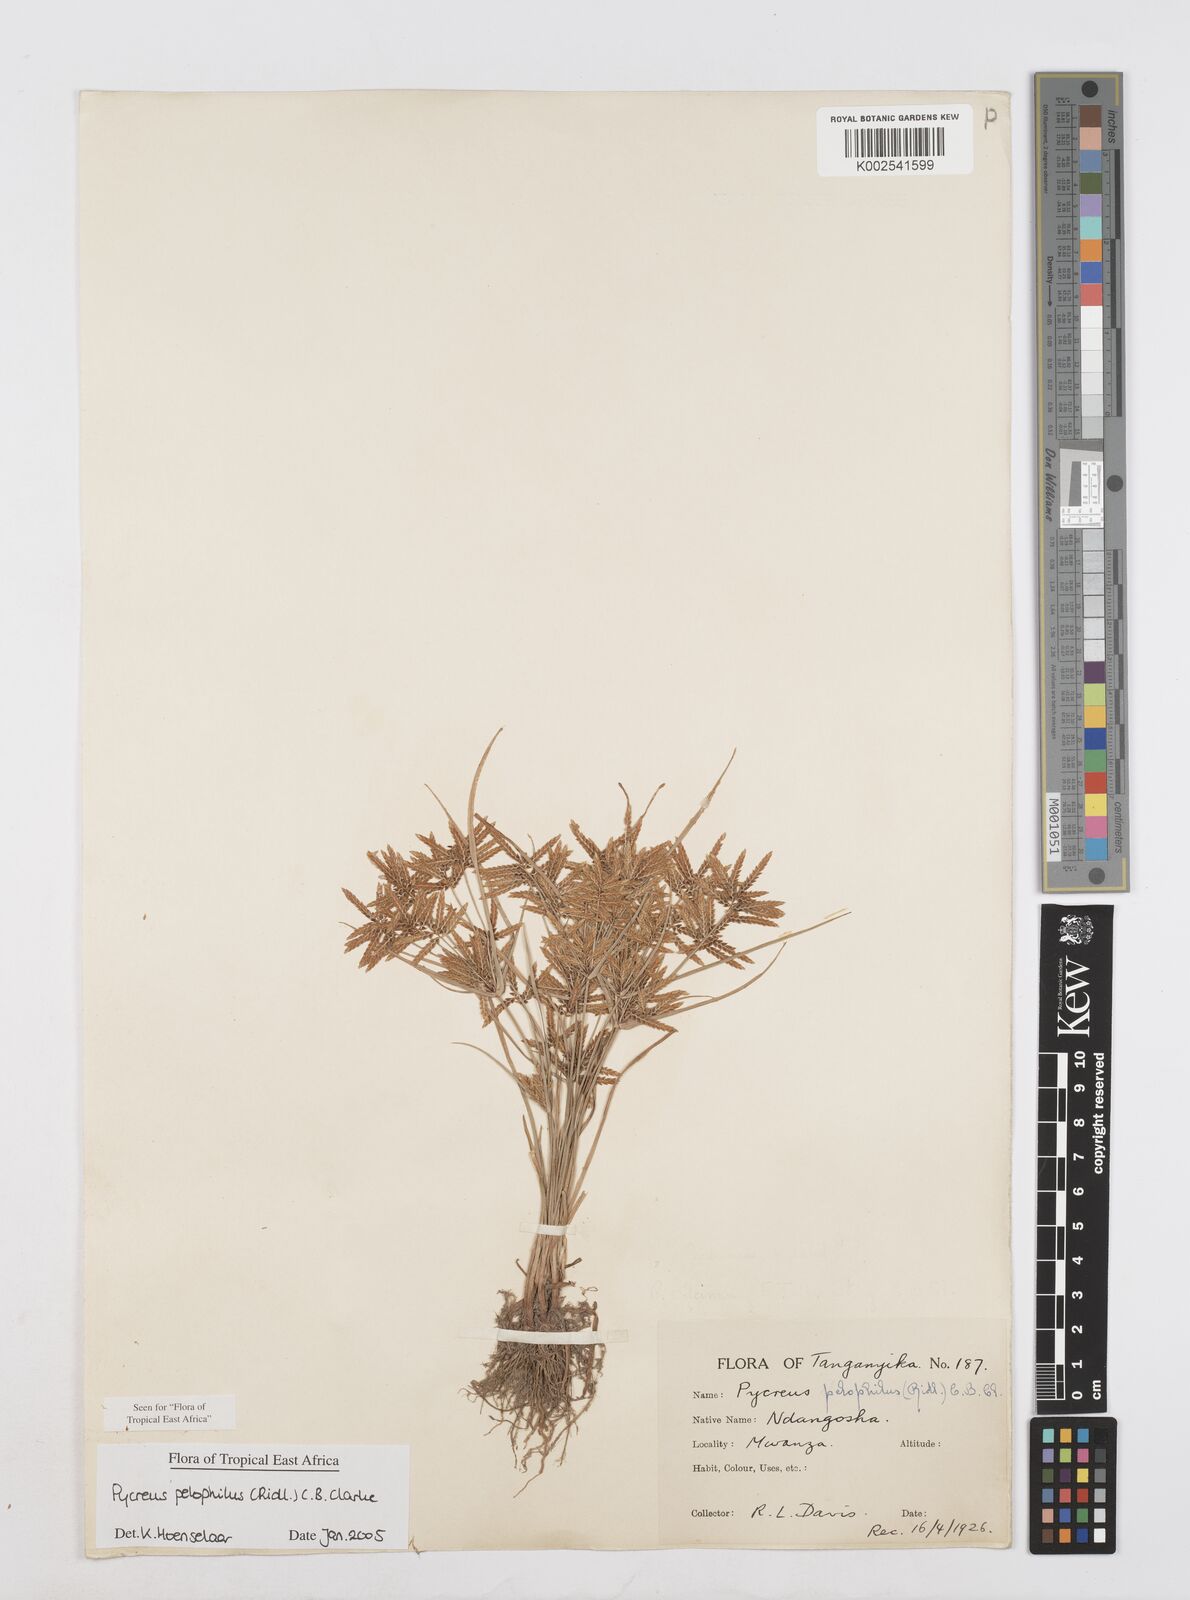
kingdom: Plantae
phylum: Tracheophyta
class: Liliopsida
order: Poales
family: Cyperaceae
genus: Cyperus
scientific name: Cyperus pelophilus
